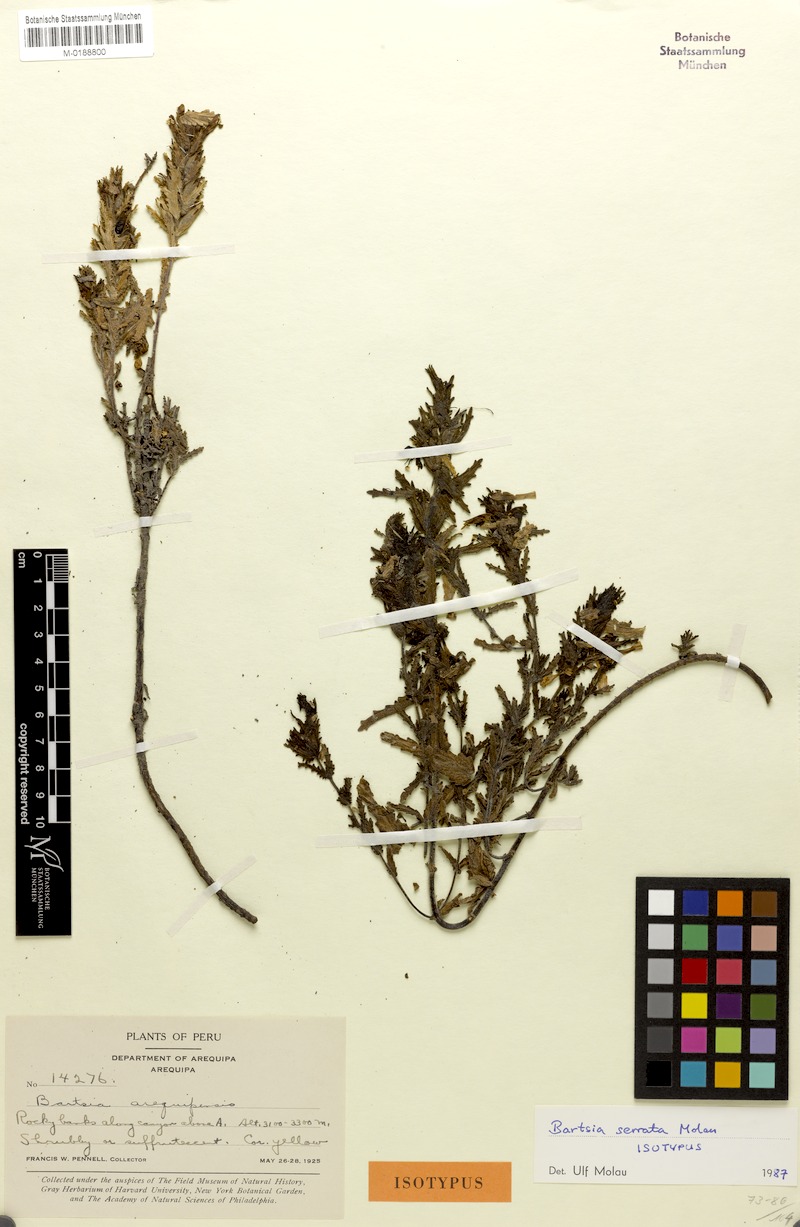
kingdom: Plantae
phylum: Tracheophyta
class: Magnoliopsida
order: Lamiales
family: Orobanchaceae
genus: Neobartsia
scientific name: Neobartsia serrata
